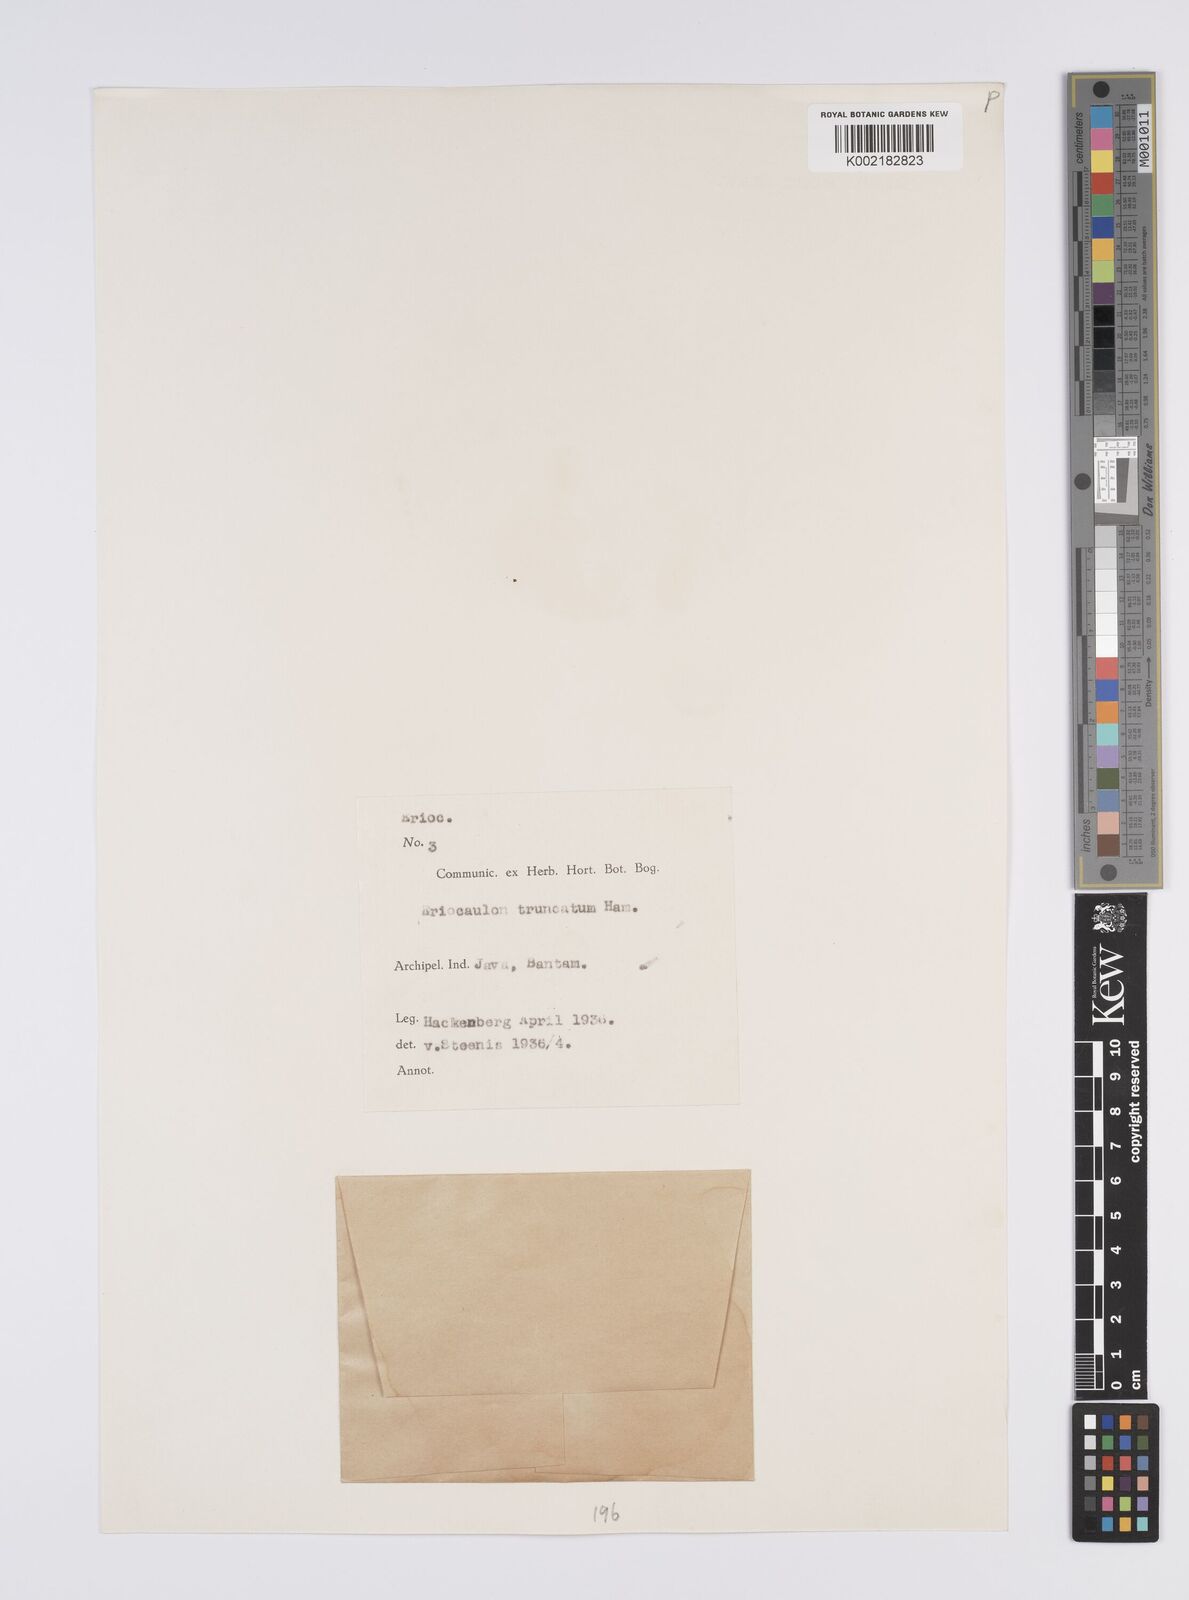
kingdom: Plantae
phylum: Tracheophyta
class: Liliopsida
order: Poales
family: Eriocaulaceae
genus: Eriocaulon
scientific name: Eriocaulon truncatum
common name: Short pipe-wort
